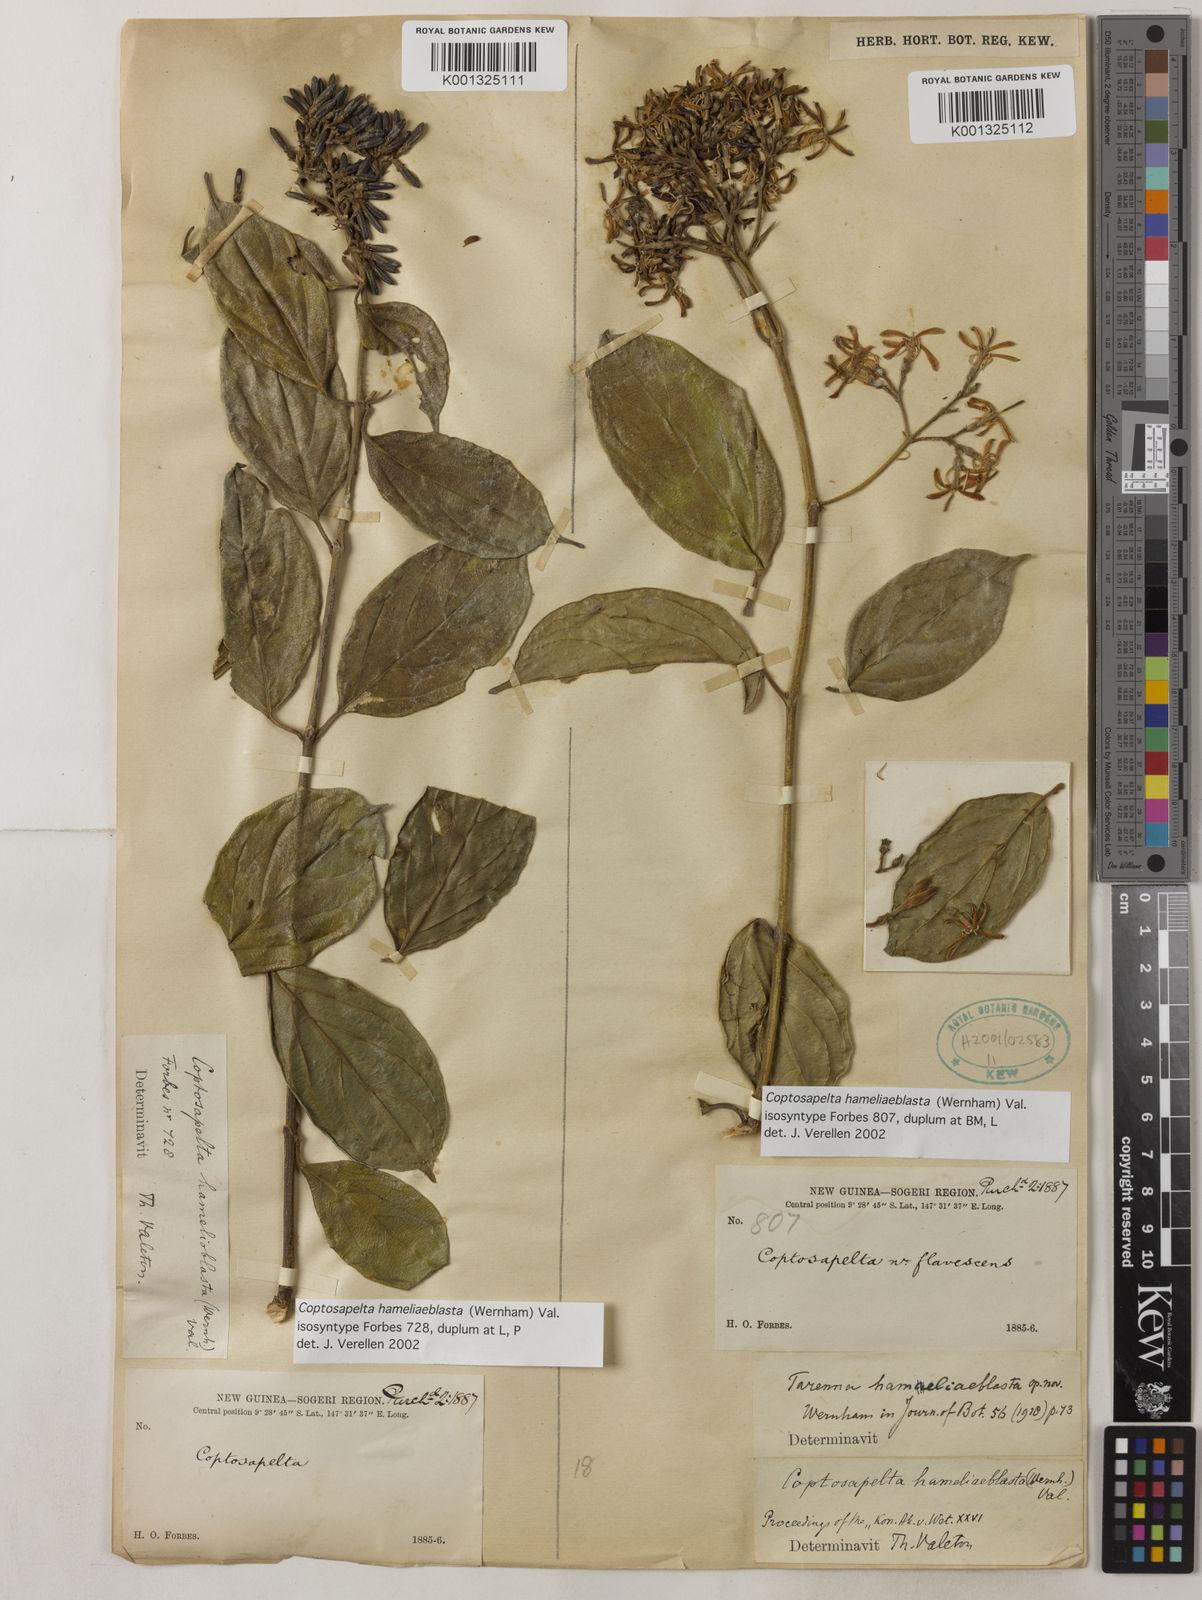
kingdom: Plantae
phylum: Tracheophyta
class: Magnoliopsida
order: Gentianales
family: Rubiaceae
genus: Coptosapelta
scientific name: Coptosapelta
